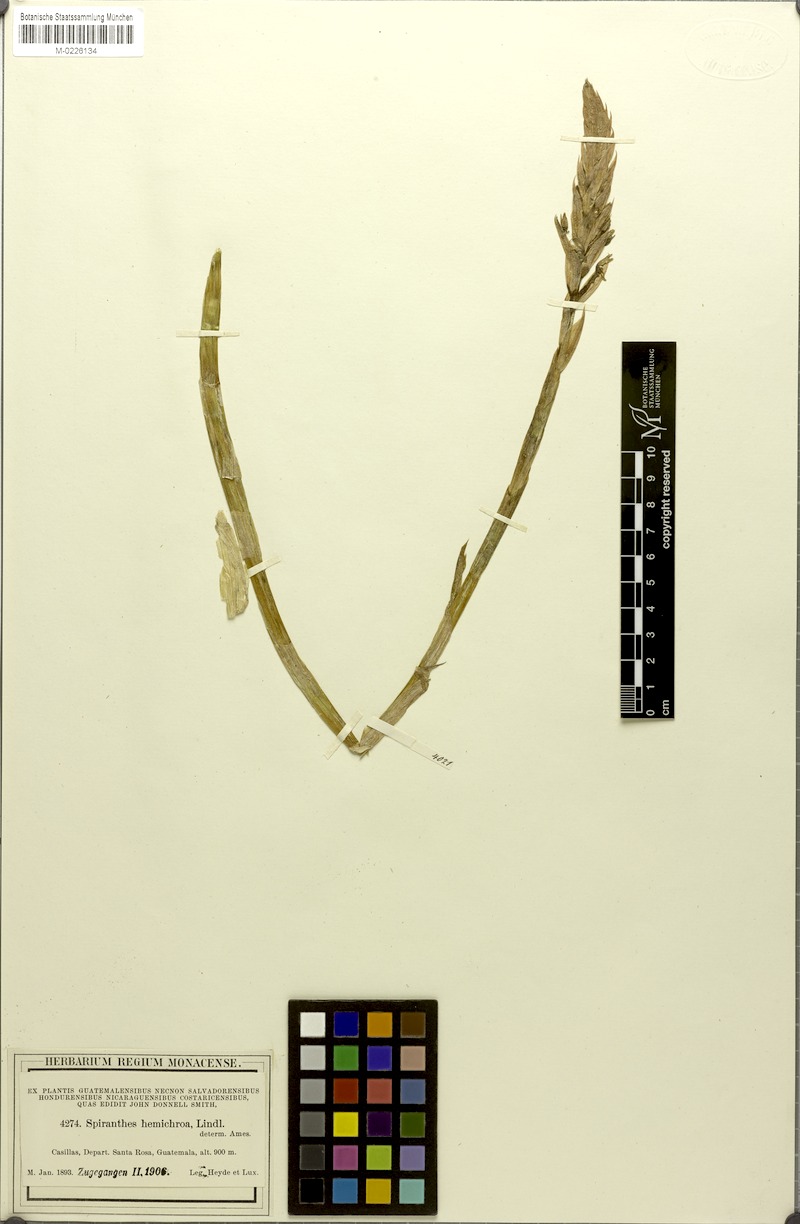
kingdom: Plantae
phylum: Tracheophyta
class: Liliopsida
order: Asparagales
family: Orchidaceae
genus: Aulosepalum
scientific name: Aulosepalum hemichrea
